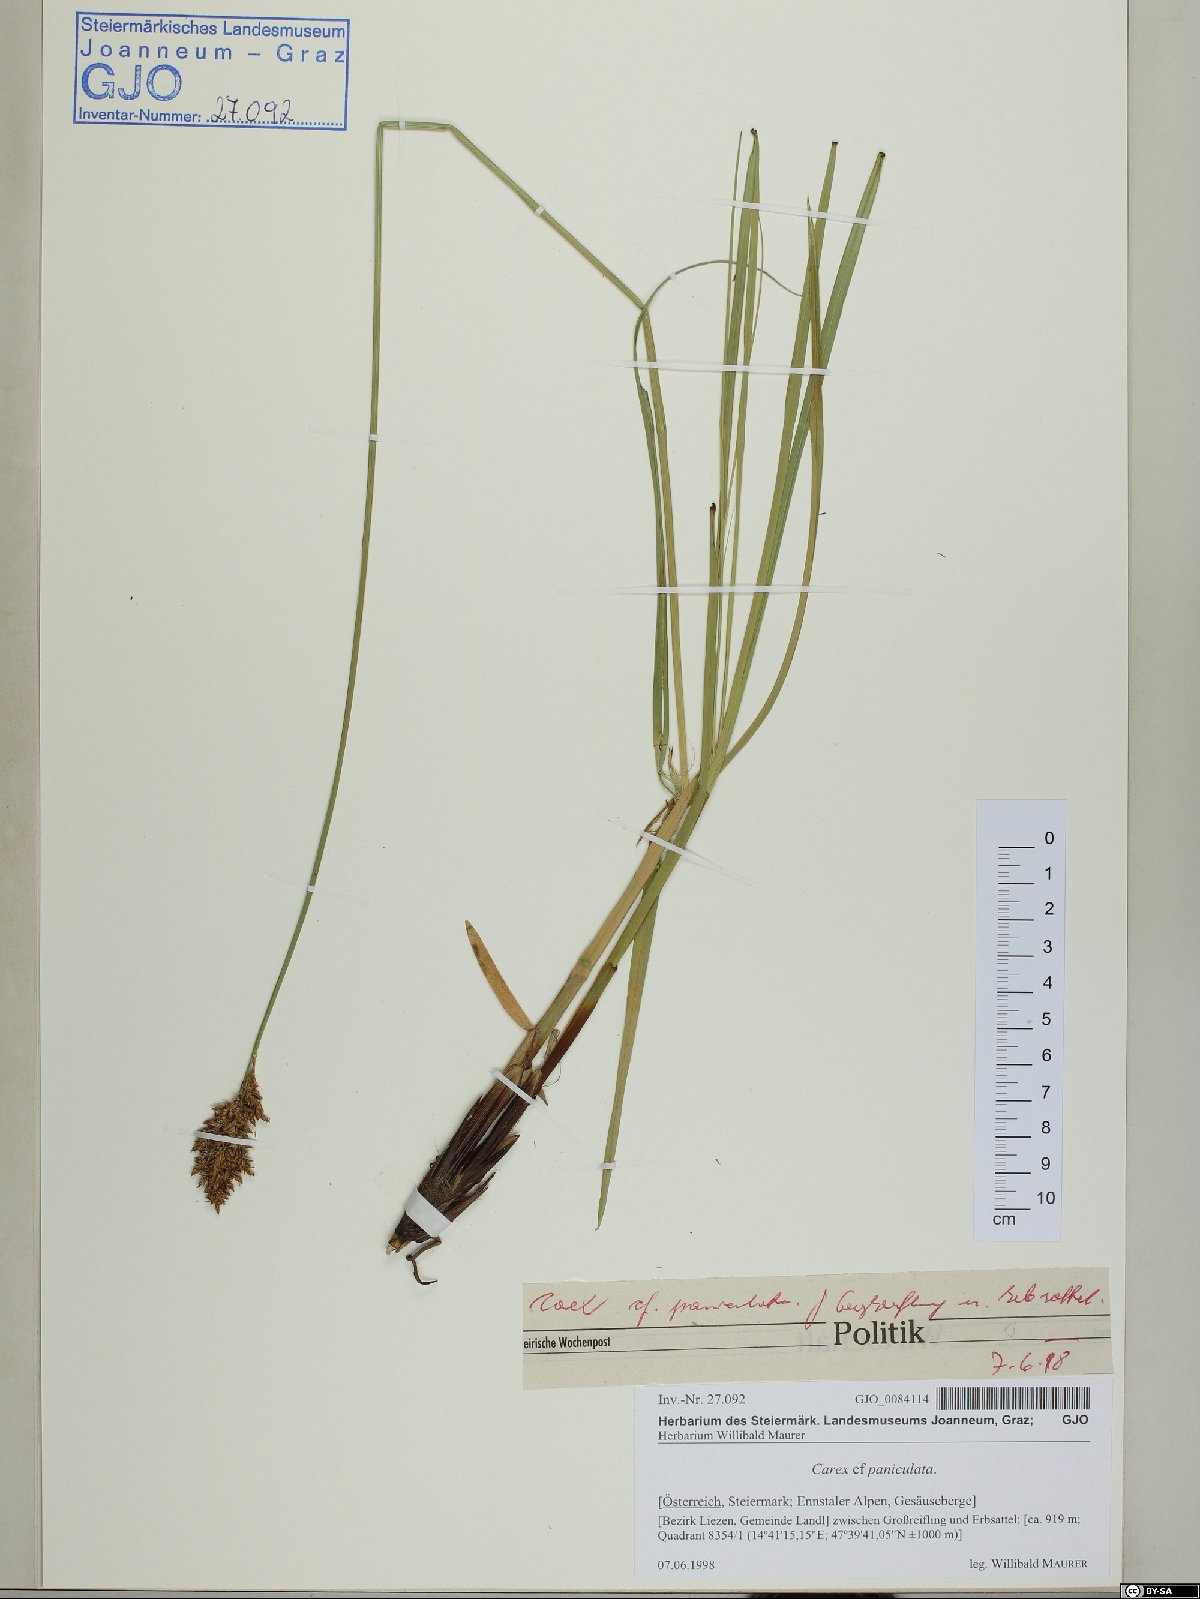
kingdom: Plantae
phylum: Tracheophyta
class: Liliopsida
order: Poales
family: Cyperaceae
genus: Carex
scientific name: Carex paniculata
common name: Greater tussock-sedge
